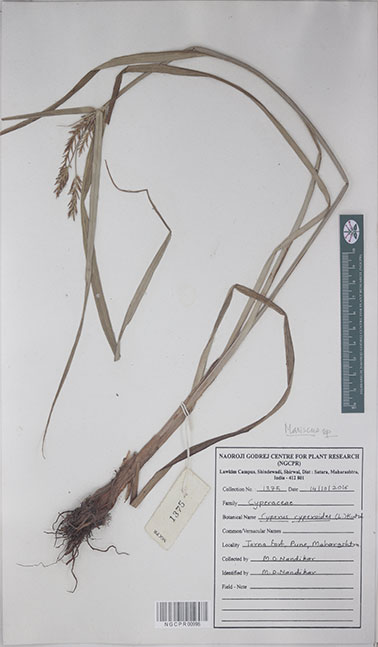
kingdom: Plantae
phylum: Tracheophyta
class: Liliopsida
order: Poales
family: Cyperaceae
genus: Cyperus
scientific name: Cyperus cyperoides
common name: Pacific island flat sedge
